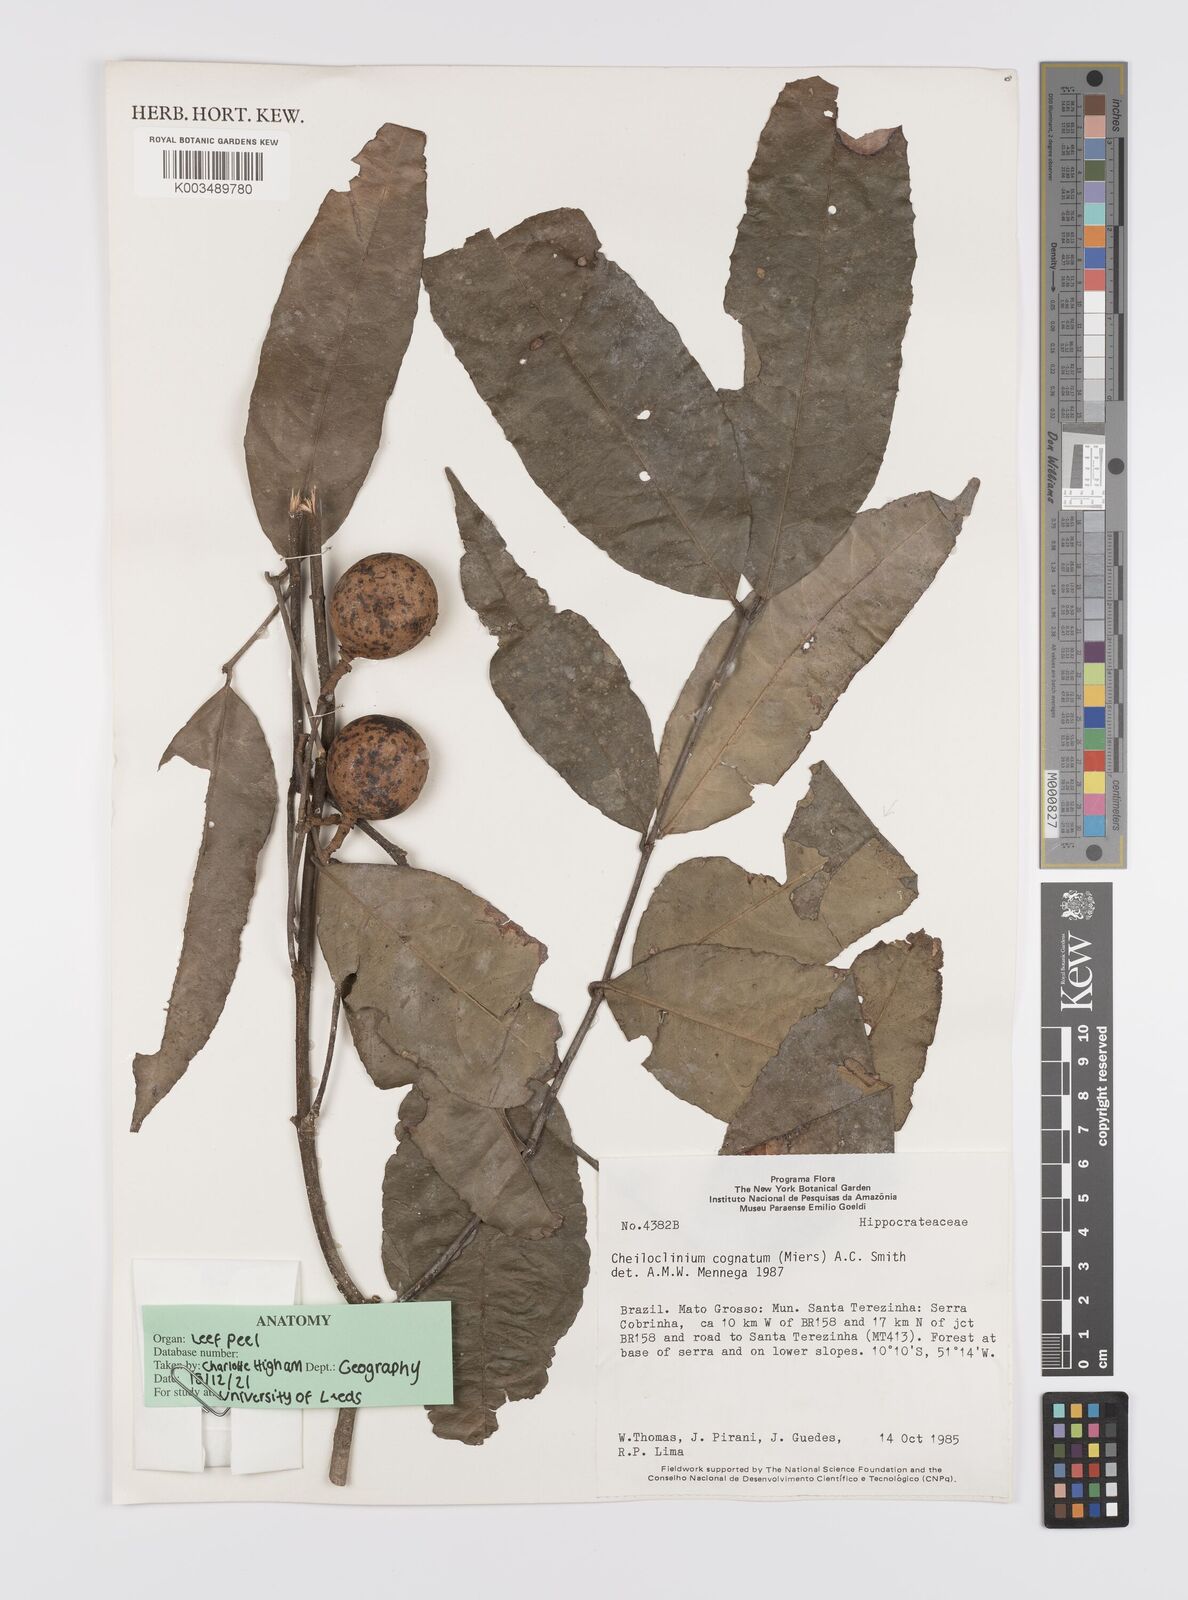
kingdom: Plantae
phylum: Tracheophyta
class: Magnoliopsida
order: Celastrales
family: Celastraceae
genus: Cheiloclinium
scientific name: Cheiloclinium cognatum
